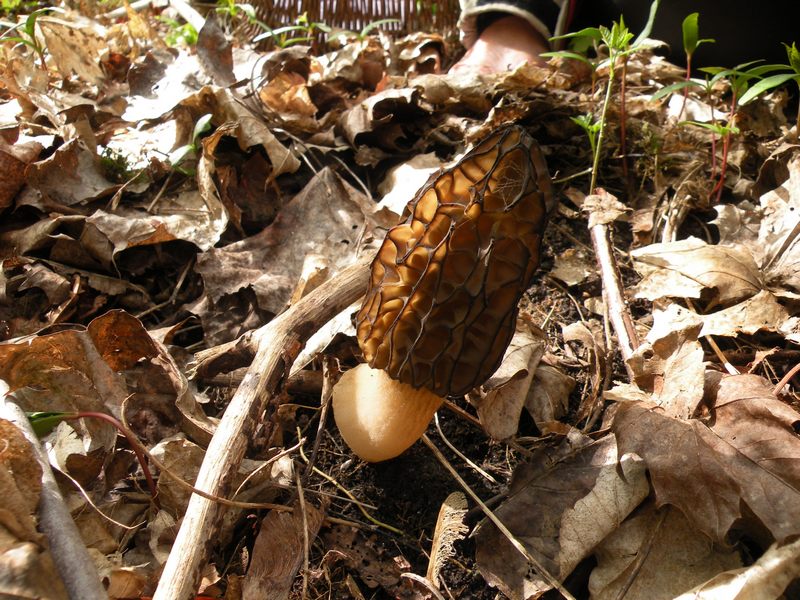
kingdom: Fungi
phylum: Ascomycota
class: Pezizomycetes
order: Pezizales
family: Morchellaceae
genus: Morchella
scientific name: Morchella esculenta
